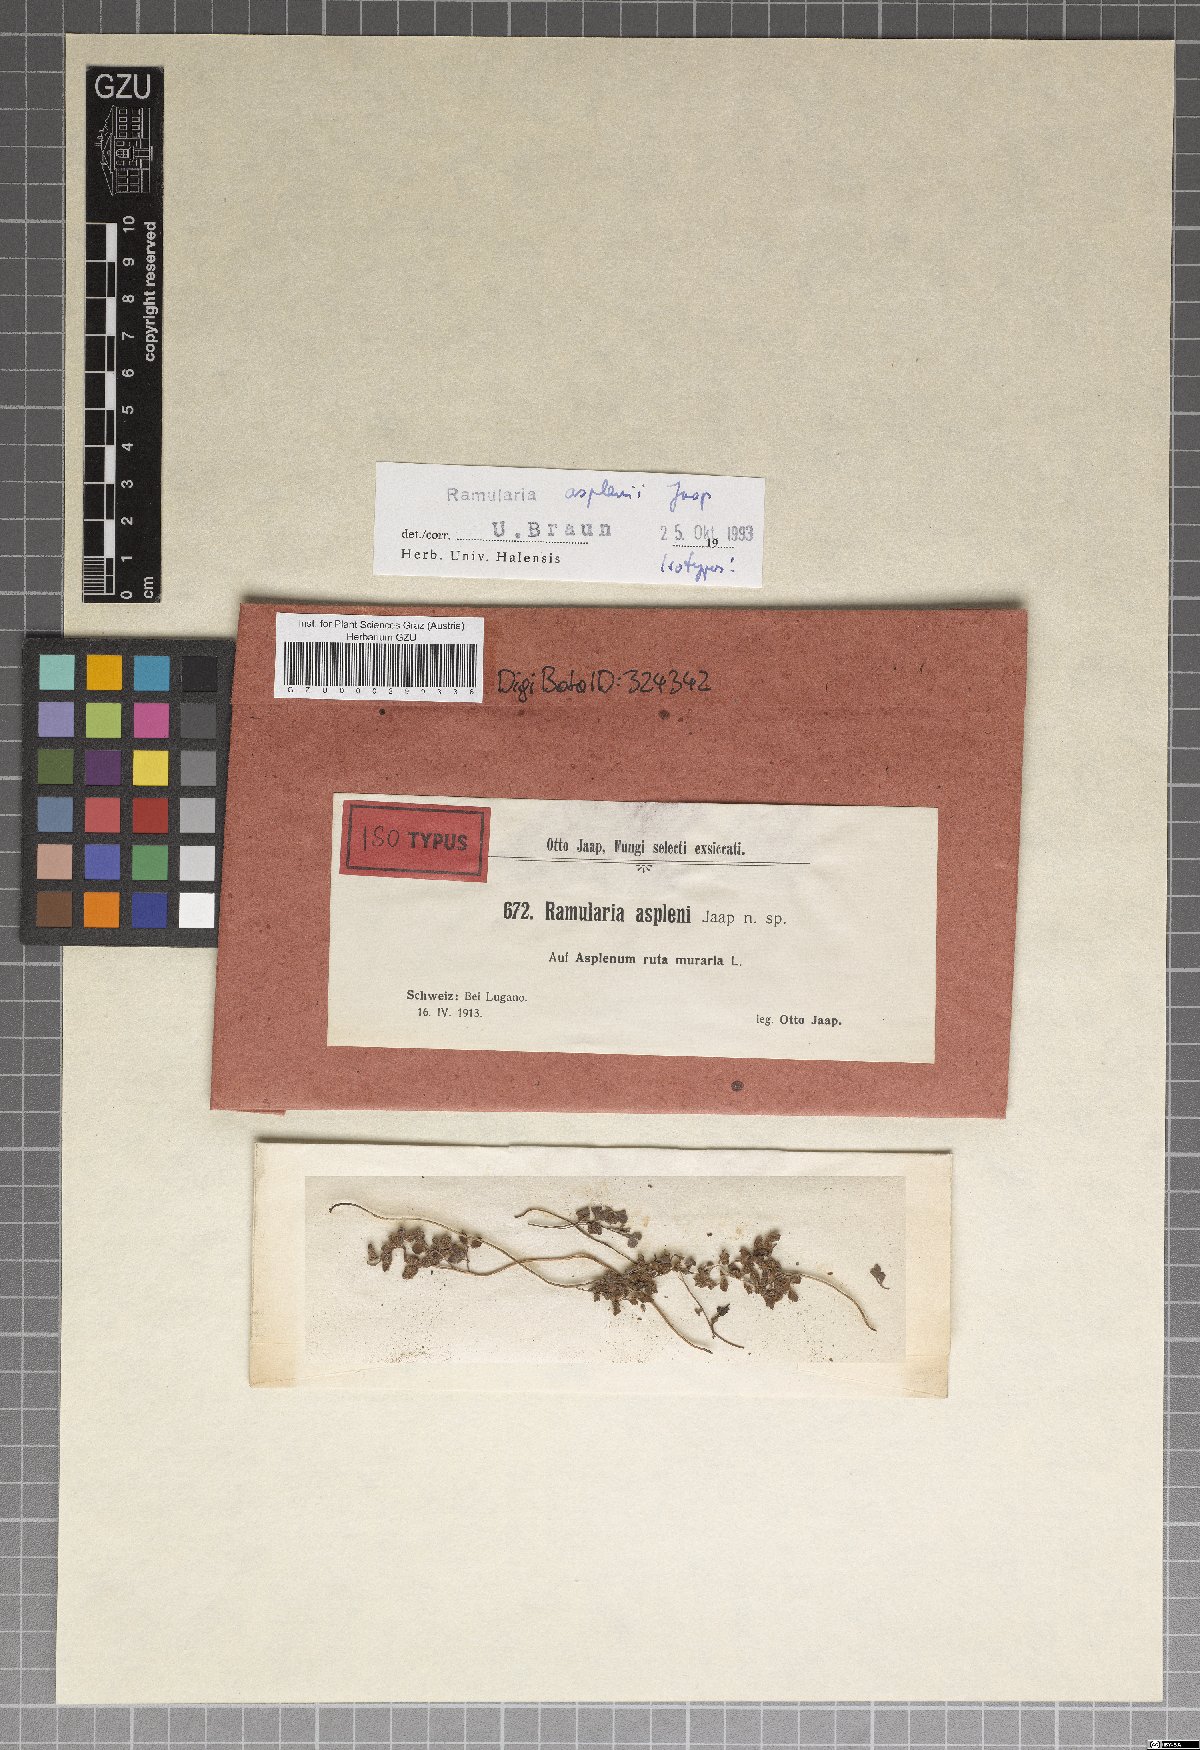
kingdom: Fungi
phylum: Ascomycota
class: Dothideomycetes
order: Capnodiales
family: Mycosphaerellaceae
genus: Ramularia
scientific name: Ramularia asplenii
